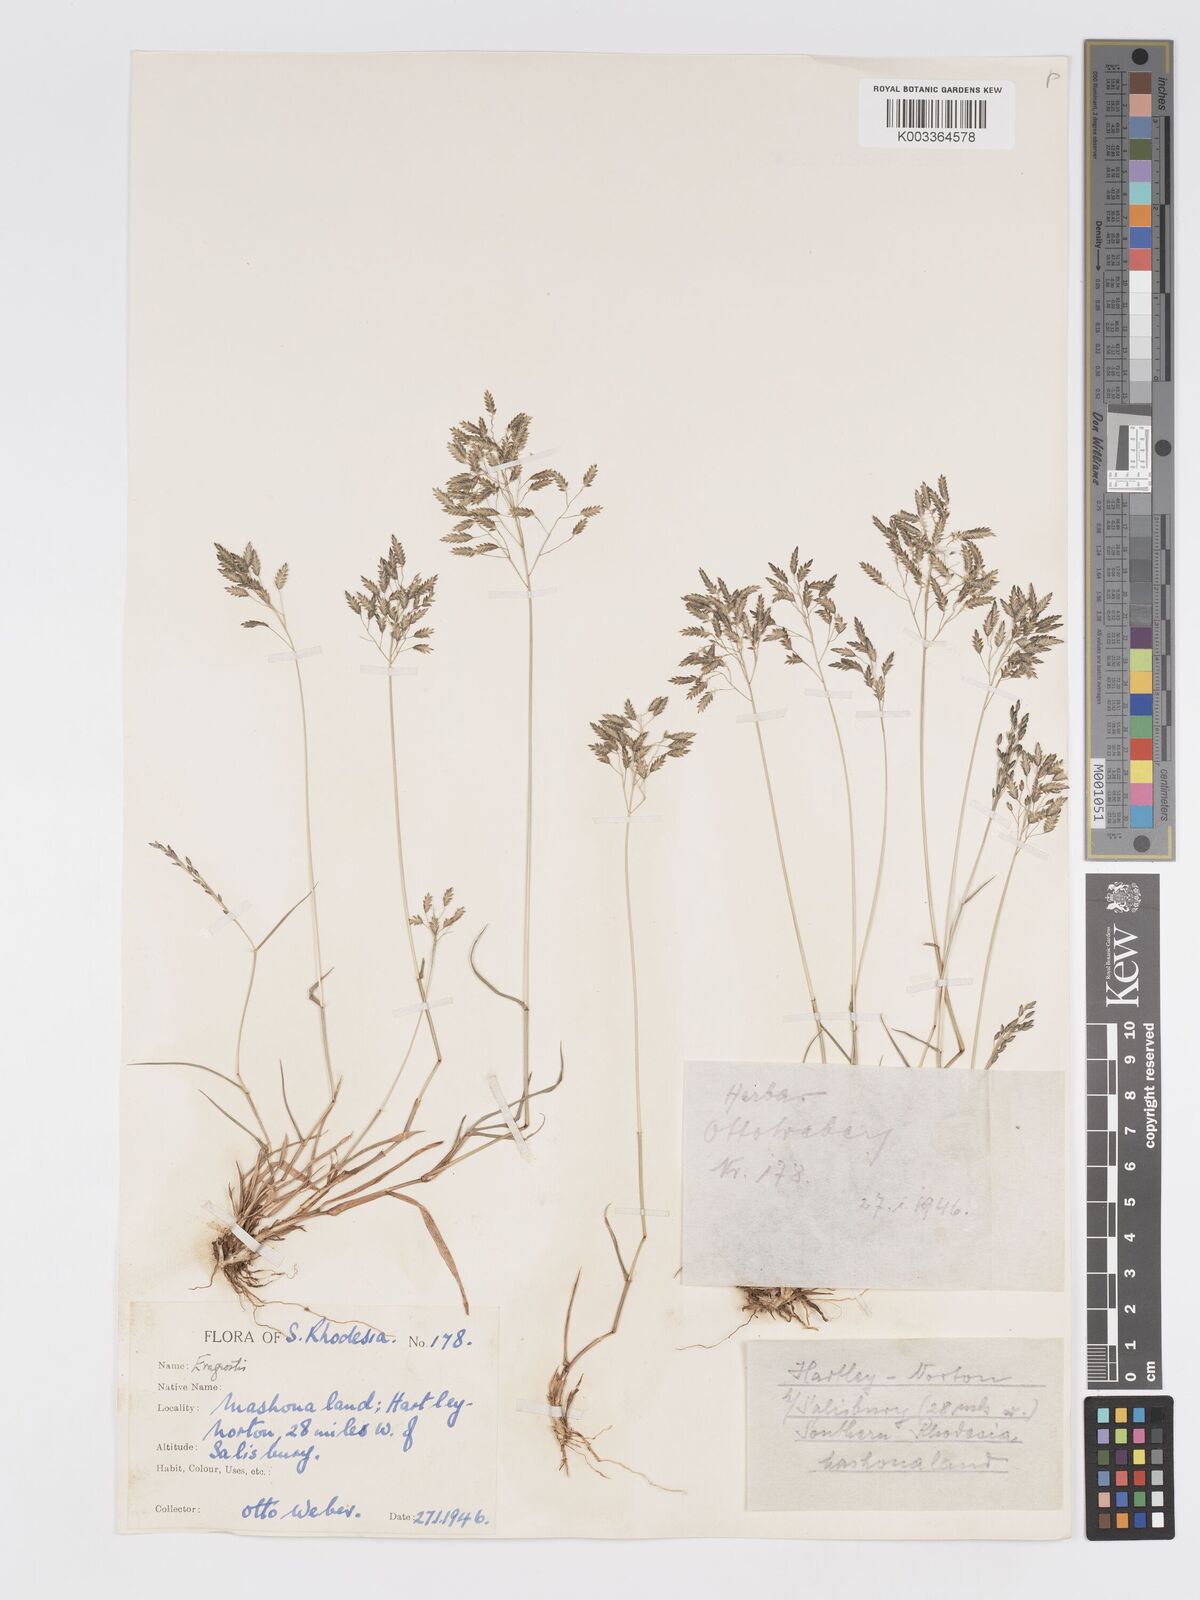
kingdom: Plantae
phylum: Tracheophyta
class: Liliopsida
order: Poales
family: Poaceae
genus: Eragrostis
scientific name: Eragrostis patentipilosa
